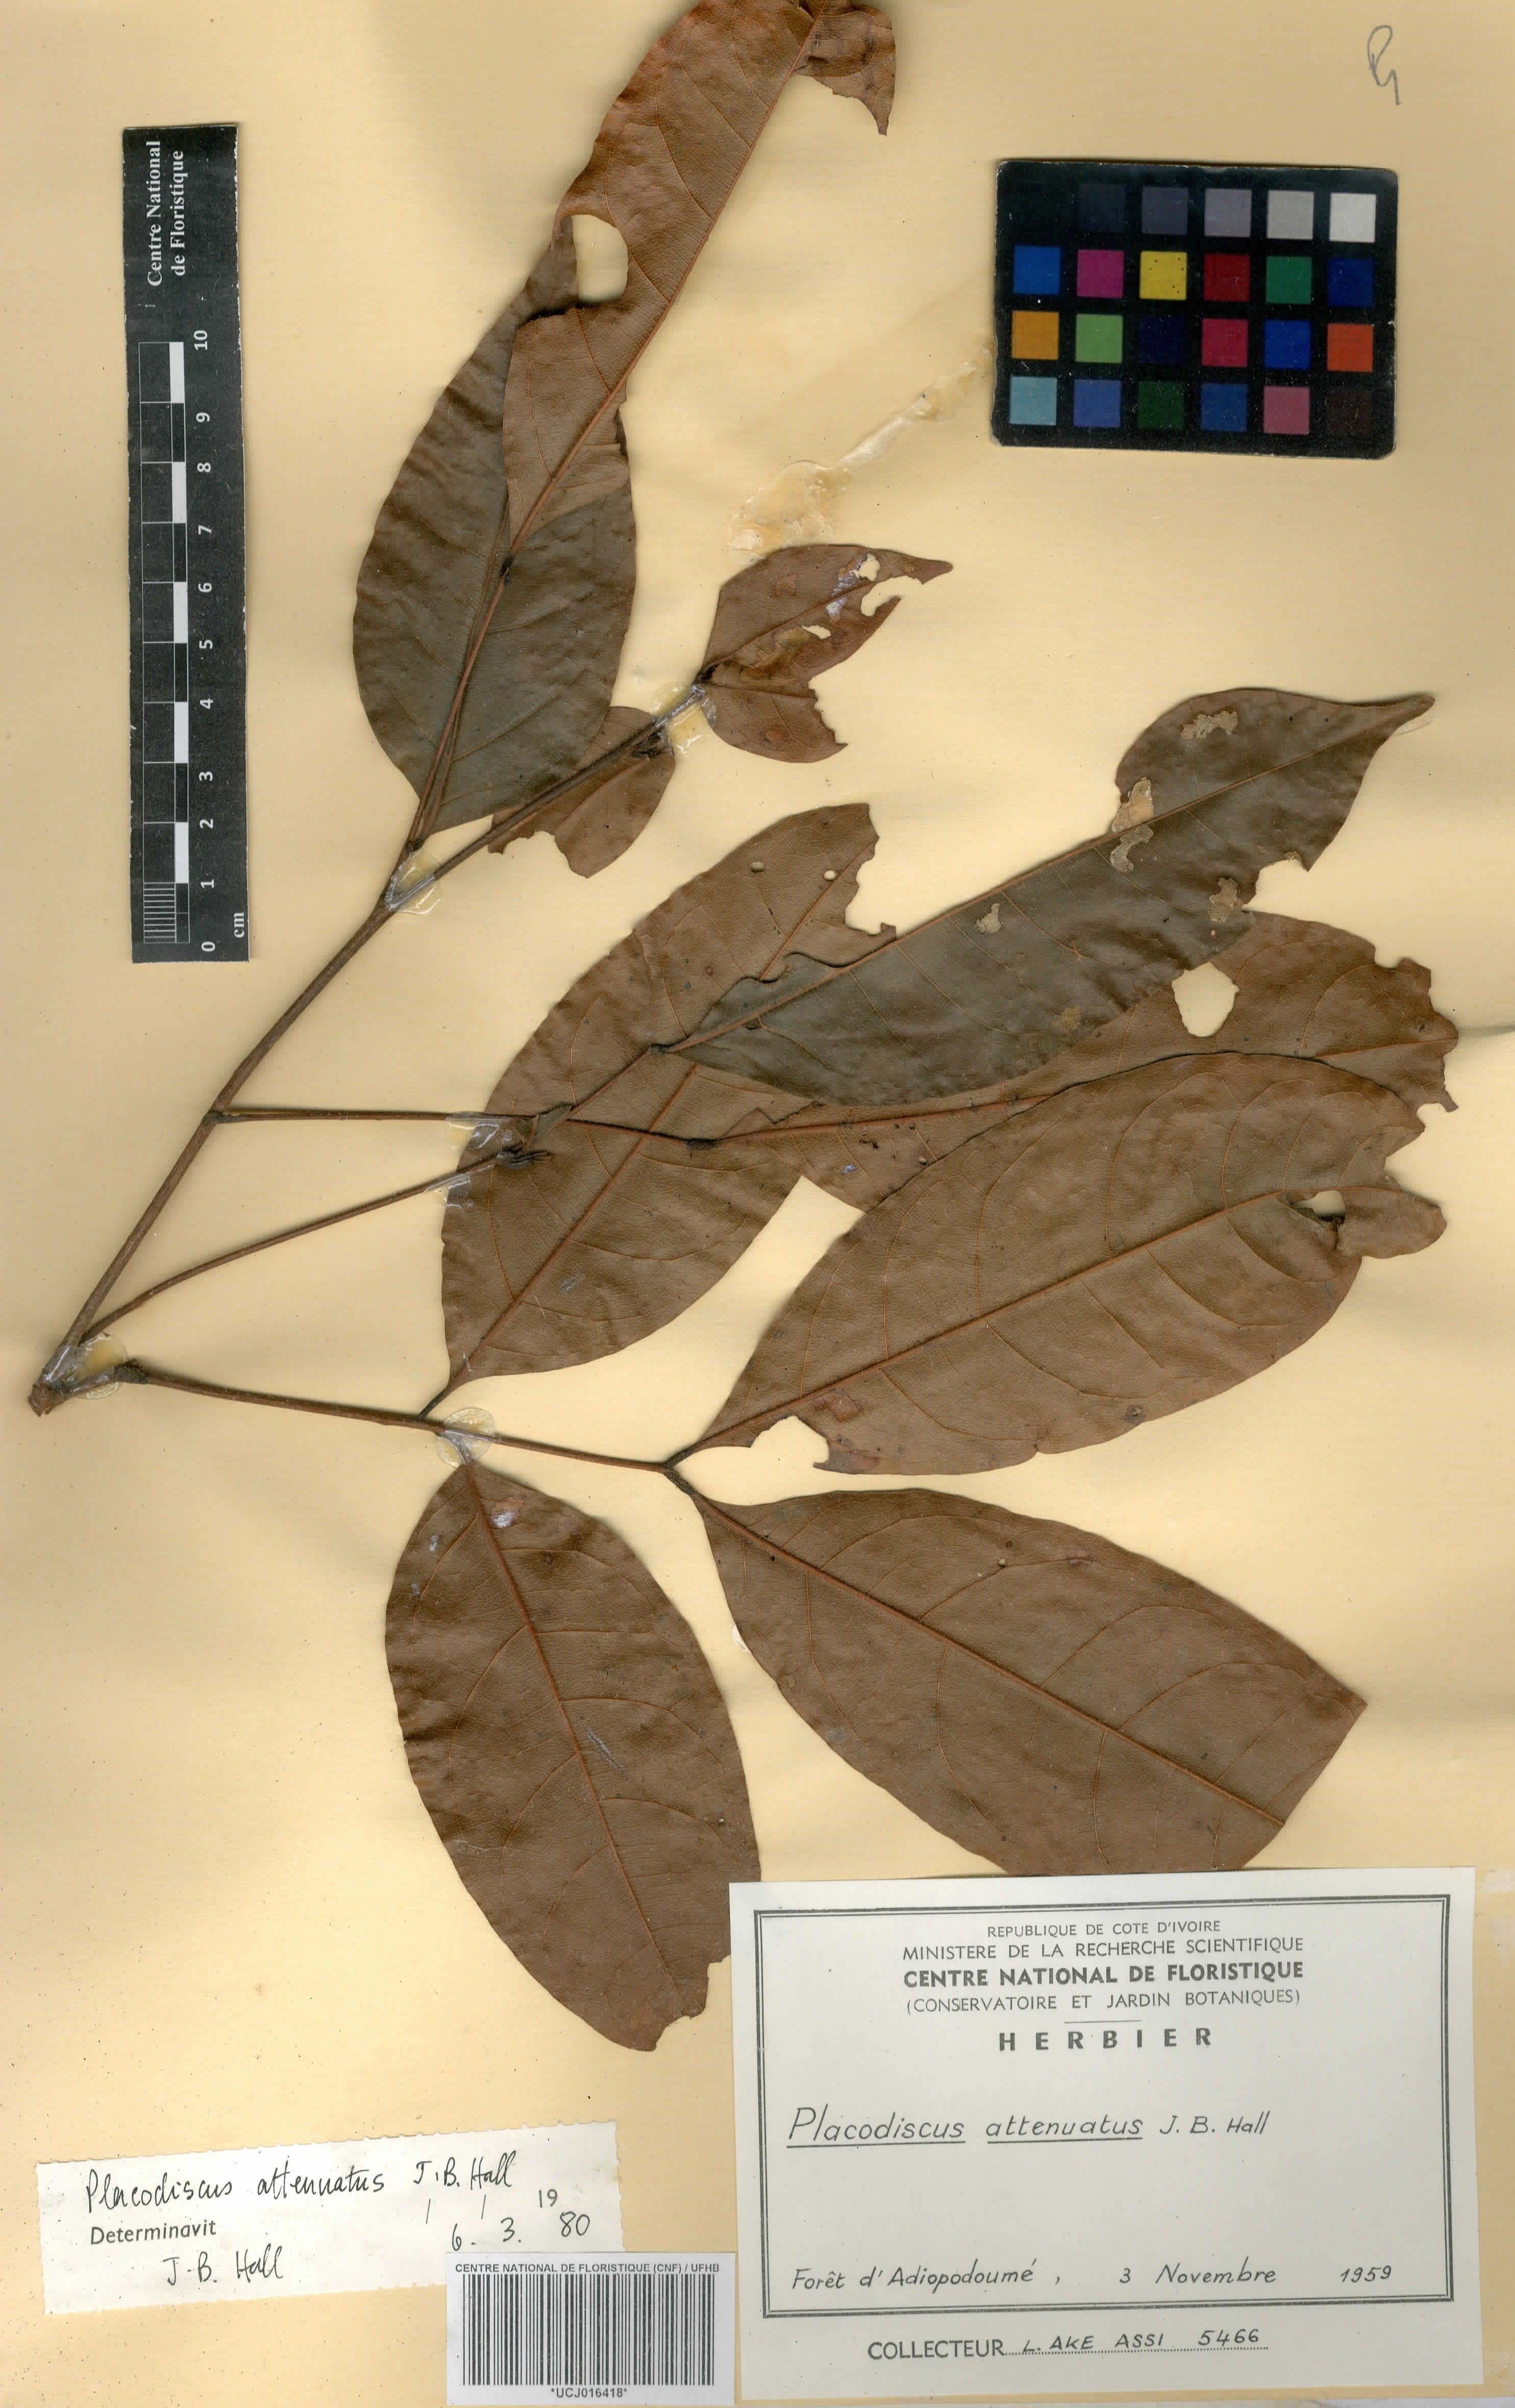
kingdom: Plantae
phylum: Tracheophyta
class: Magnoliopsida
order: Sapindales
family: Sapindaceae
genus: Placodiscus
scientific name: Placodiscus attenuatus
